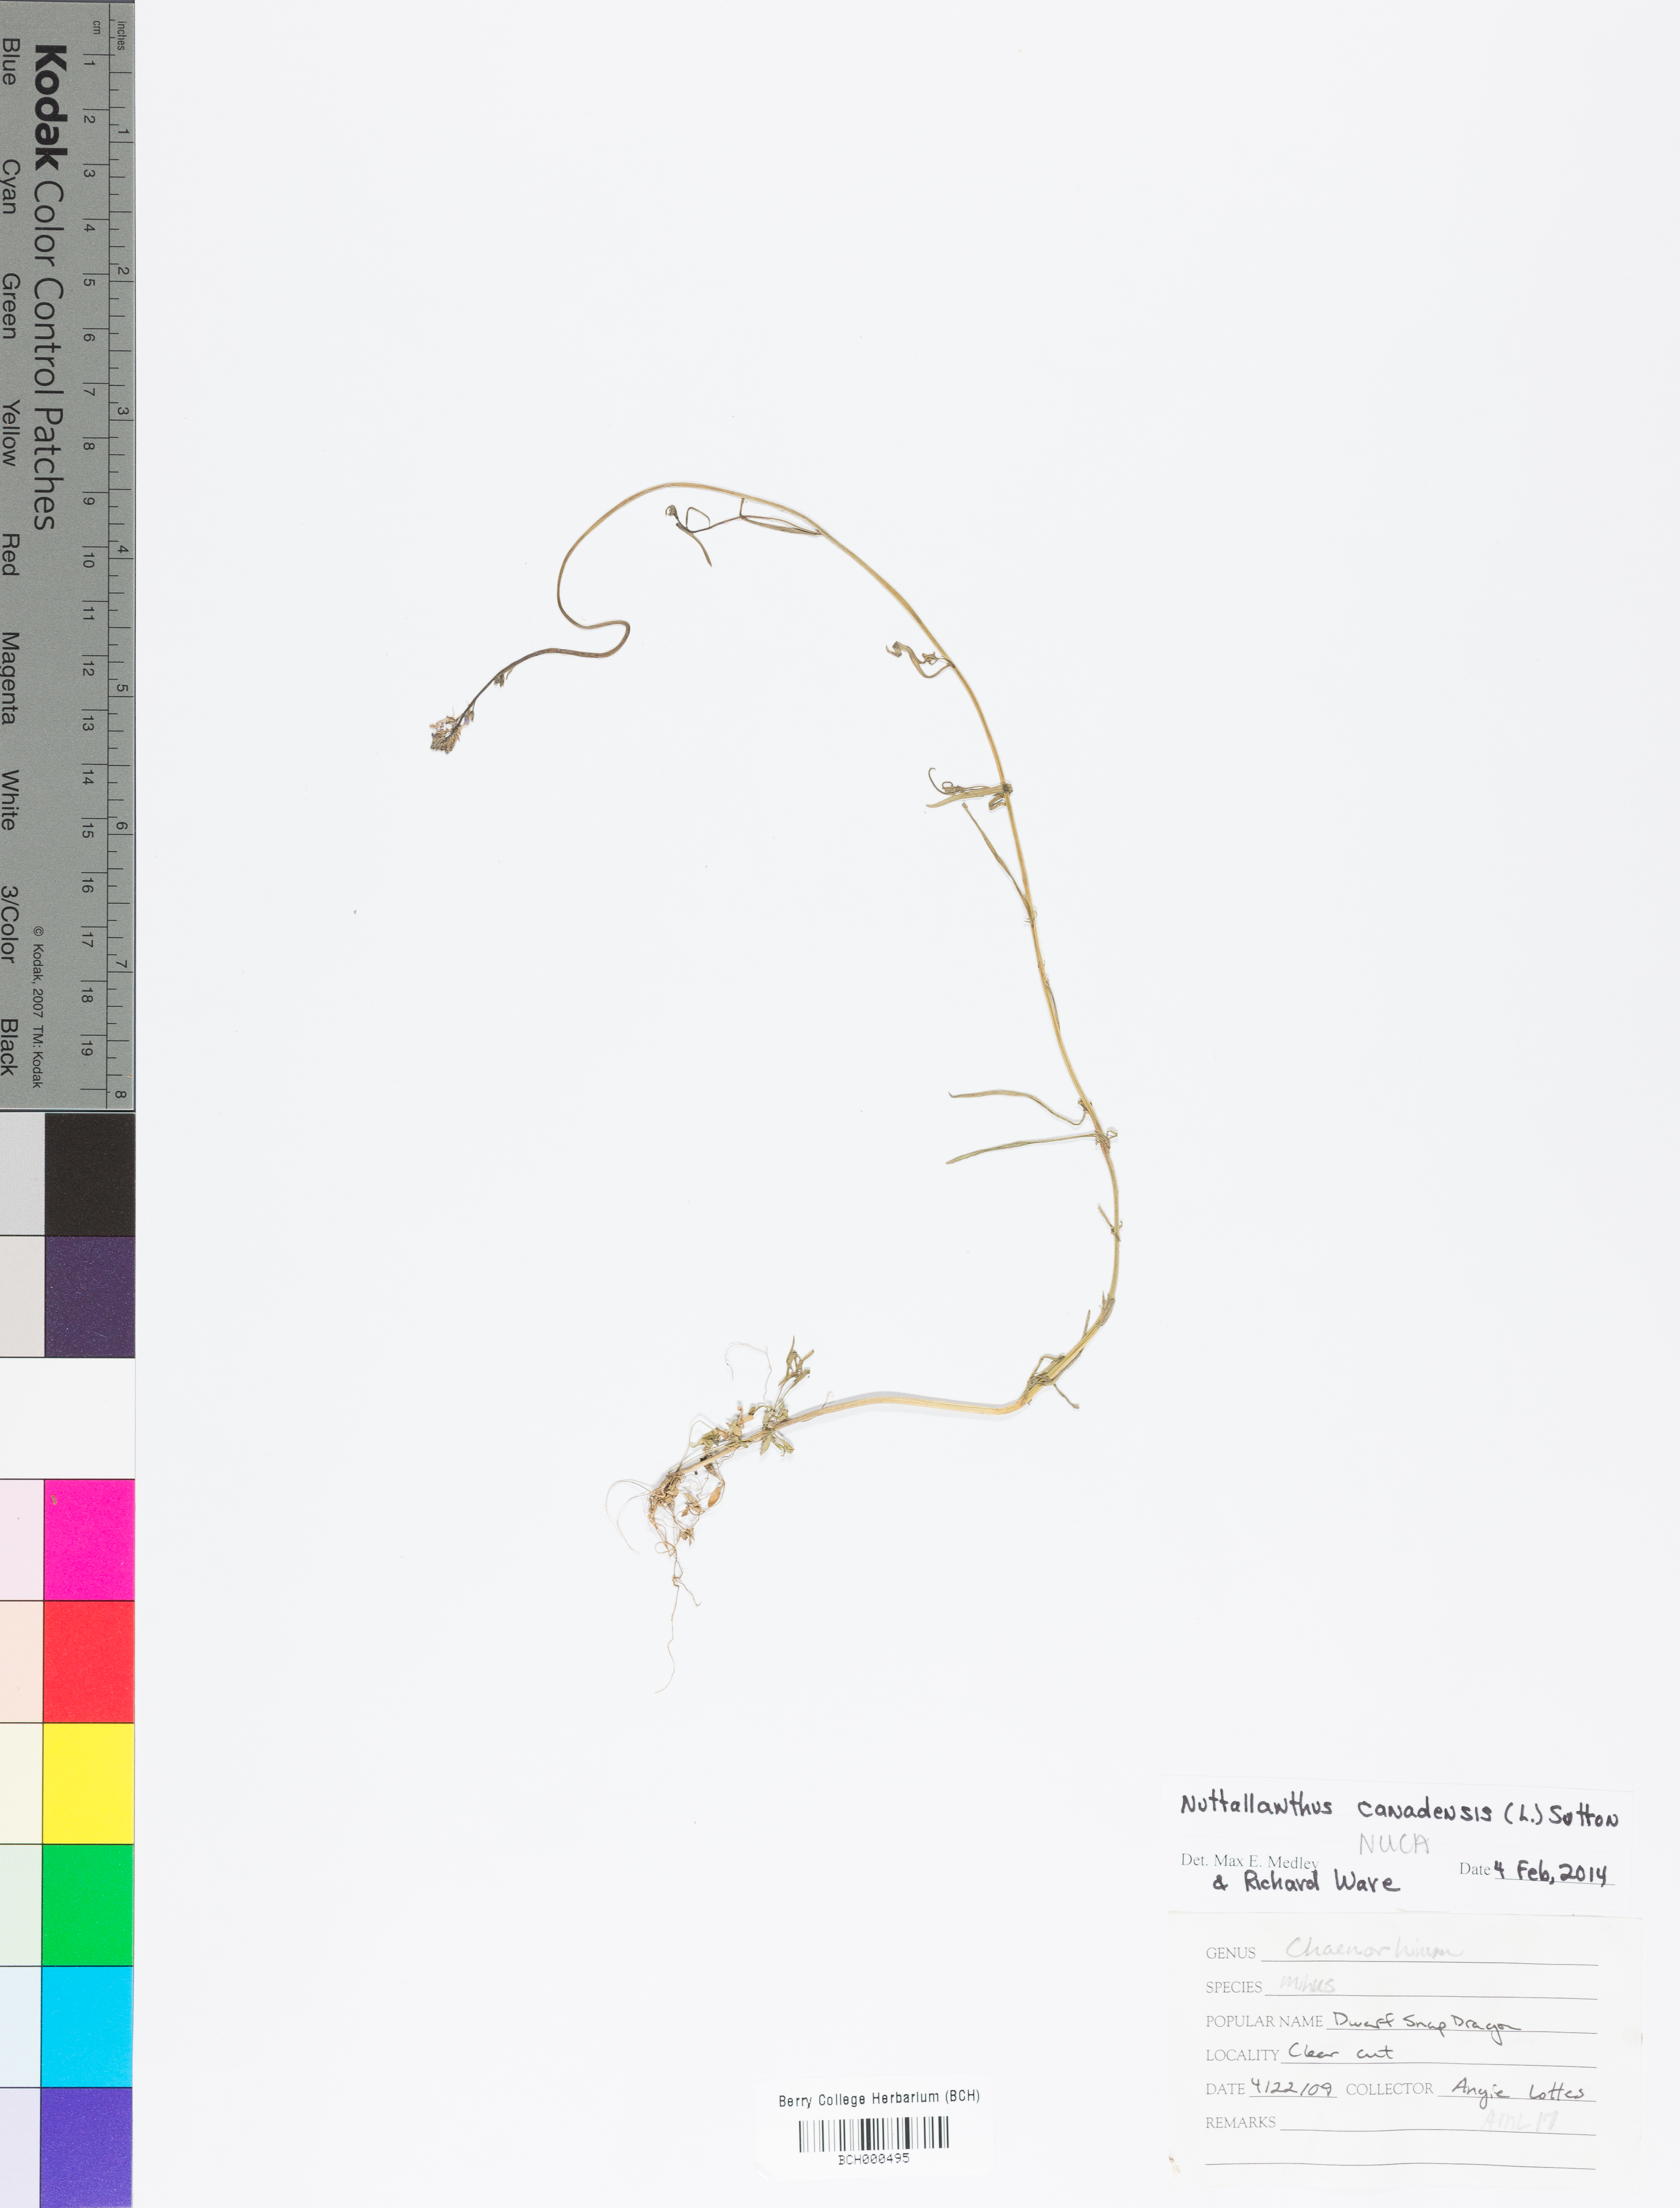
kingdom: Plantae
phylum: Tracheophyta
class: Magnoliopsida
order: Lamiales
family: Plantaginaceae
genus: Nuttallanthus
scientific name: Nuttallanthus canadensis
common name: Blue toadflax
